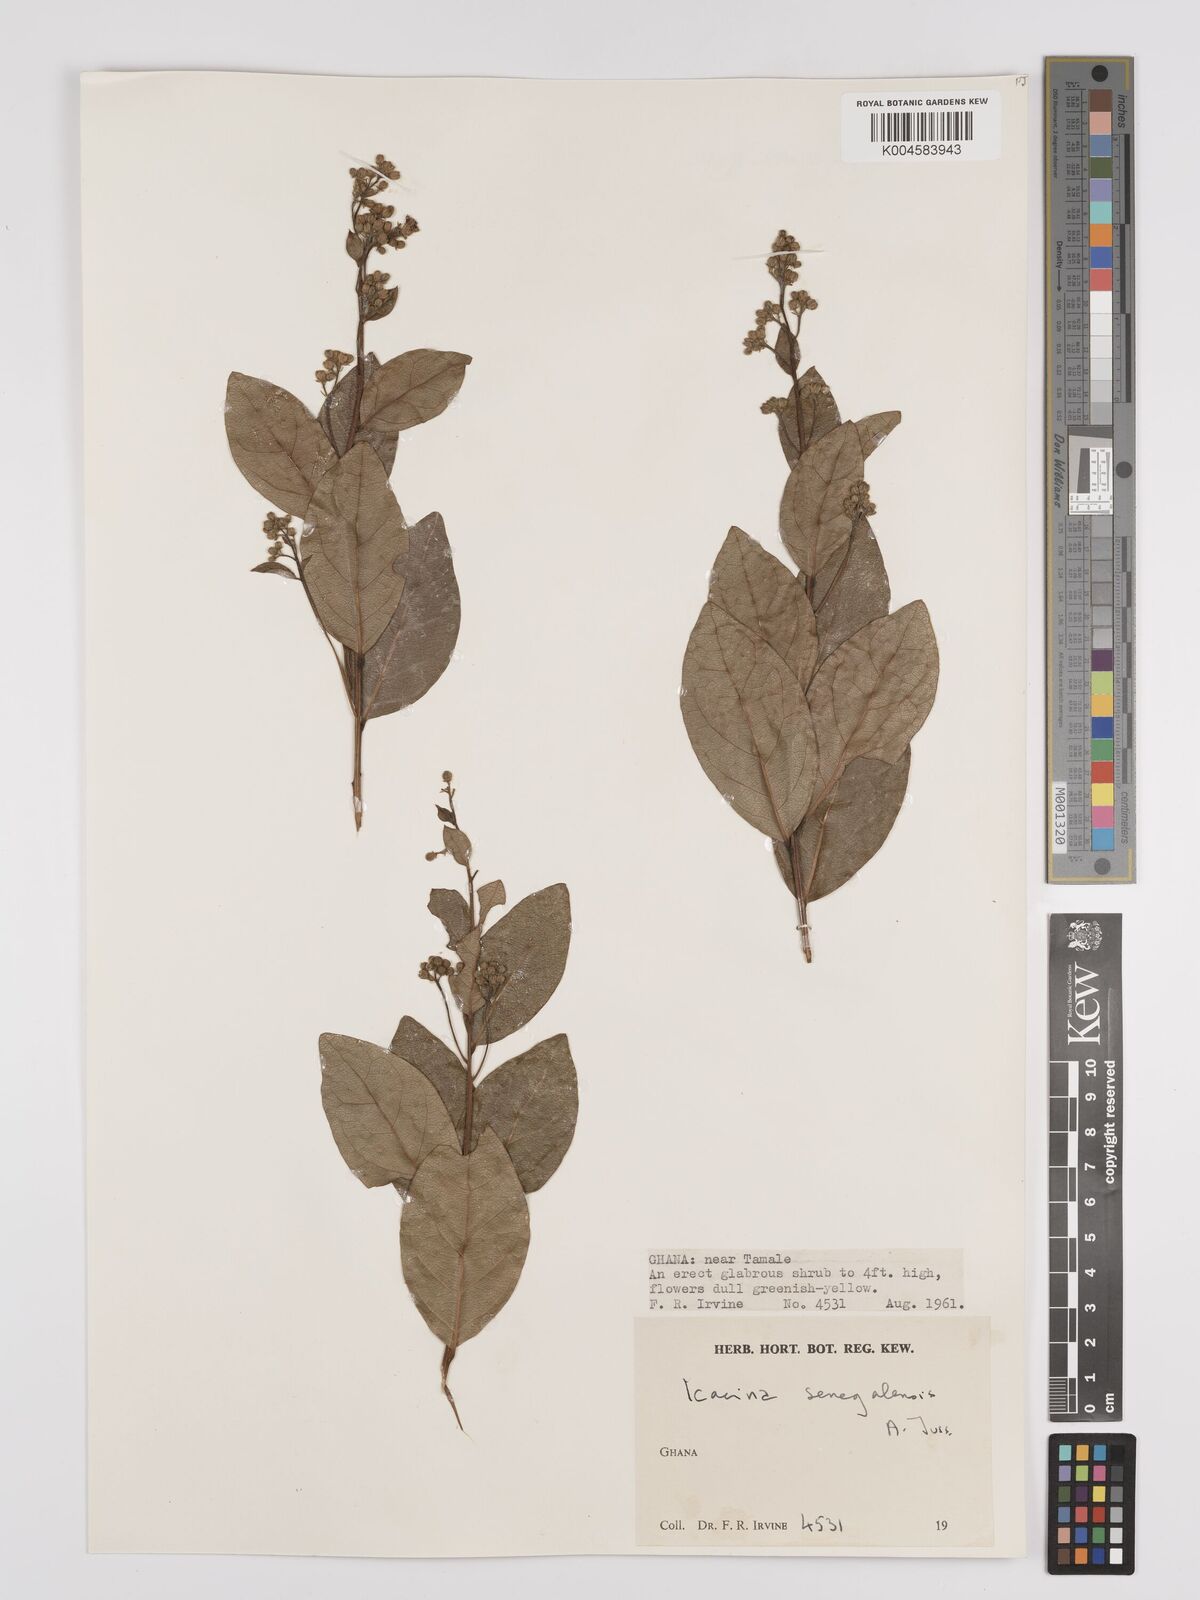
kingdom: Plantae
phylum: Tracheophyta
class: Magnoliopsida
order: Icacinales
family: Icacinaceae
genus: Icacina
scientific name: Icacina oliviformis
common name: False yam
